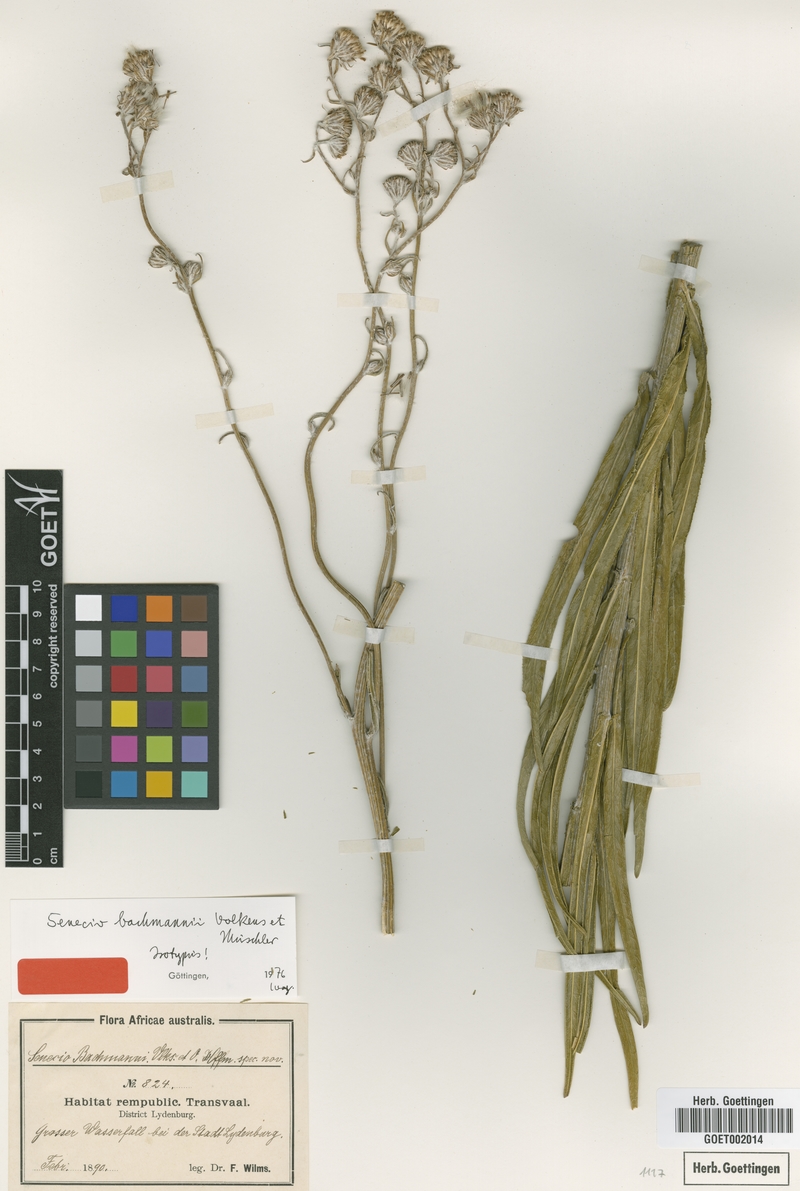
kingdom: Plantae
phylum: Tracheophyta
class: Magnoliopsida
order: Asterales
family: Asteraceae
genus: Senecio
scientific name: Senecio bachmannii
